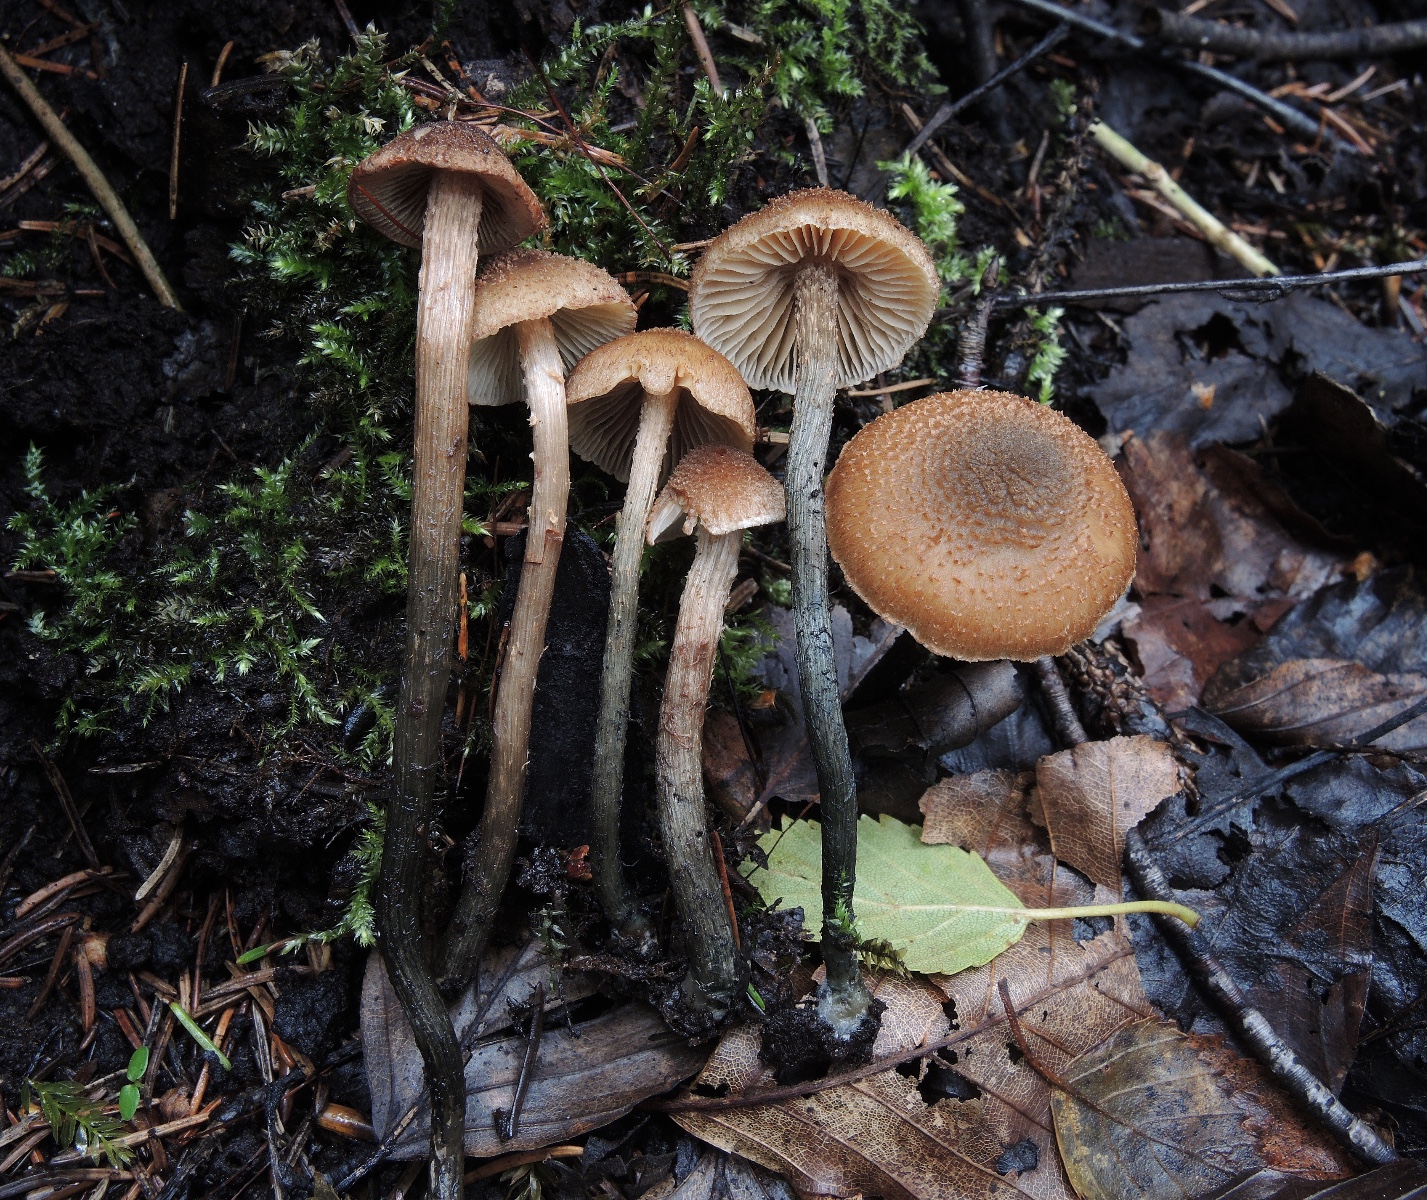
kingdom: Fungi
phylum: Basidiomycota
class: Agaricomycetes
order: Agaricales
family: Inocybaceae
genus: Inosperma
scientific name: Inosperma calamistratum
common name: grønfodet trævlhat
